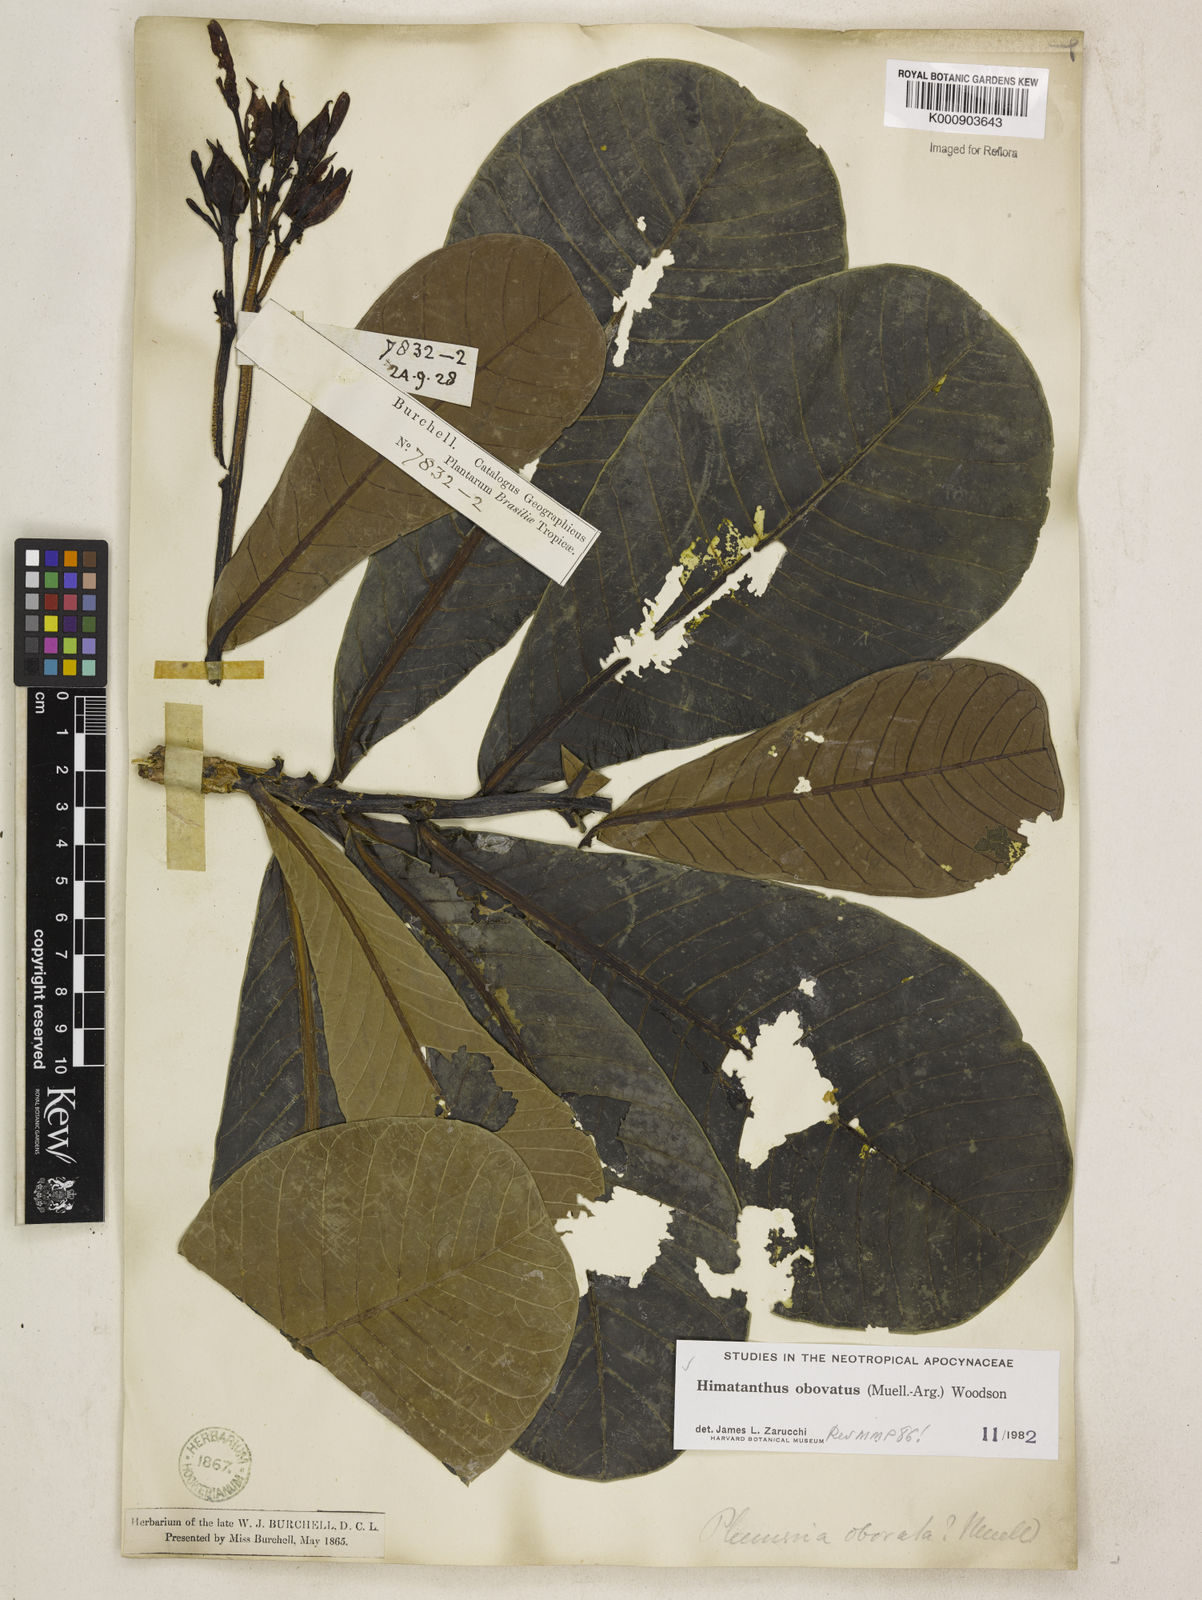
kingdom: Plantae
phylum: Tracheophyta
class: Magnoliopsida
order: Gentianales
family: Apocynaceae
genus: Himatanthus
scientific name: Himatanthus
